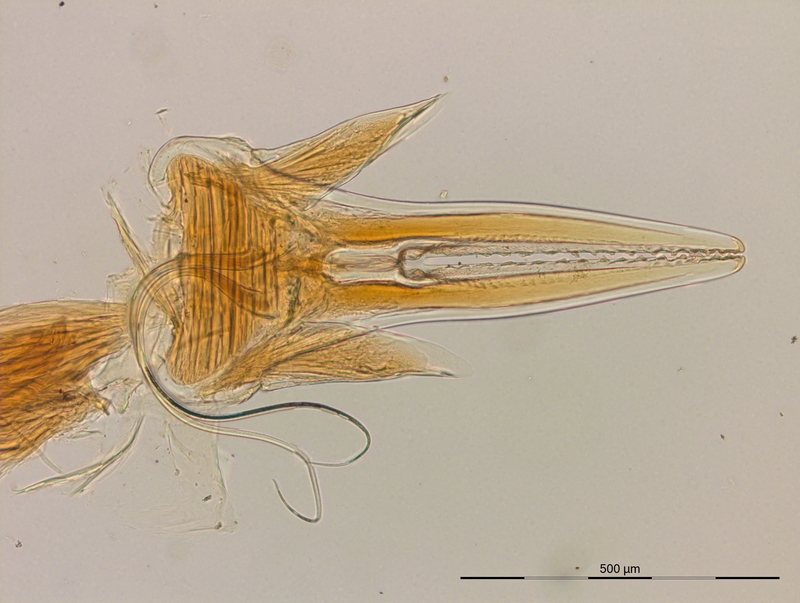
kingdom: Animalia
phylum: Arthropoda
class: Diplopoda
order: Julida
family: Okeanobatidae
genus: Japoniobates
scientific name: Japoniobates serratus
